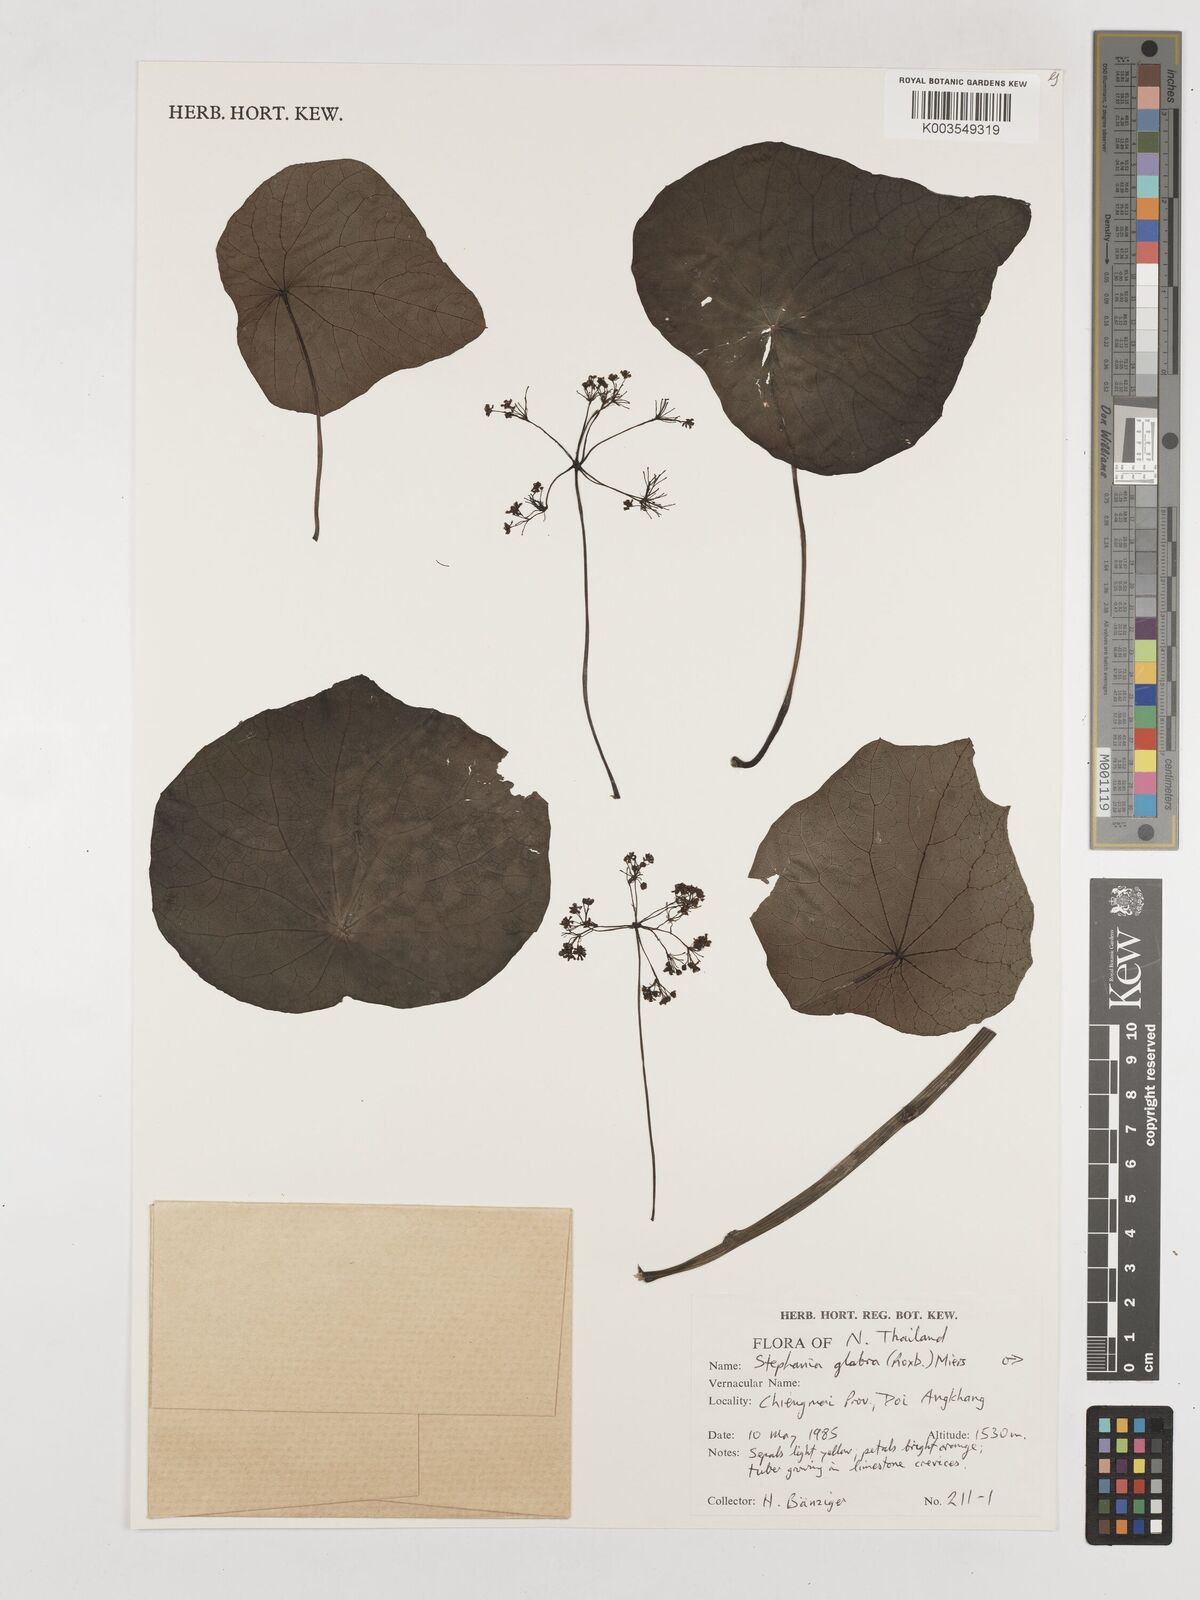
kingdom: Plantae
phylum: Tracheophyta
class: Magnoliopsida
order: Ranunculales
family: Menispermaceae
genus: Stephania
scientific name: Stephania rotunda
